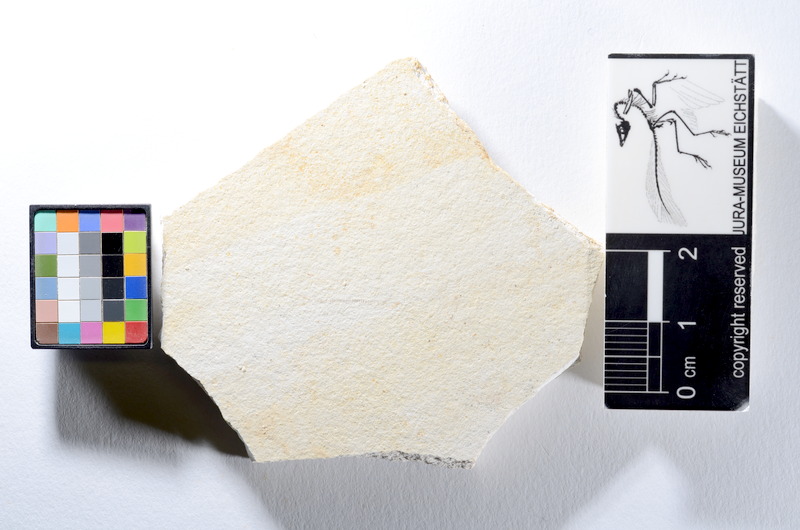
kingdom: Animalia
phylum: Chordata
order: Salmoniformes
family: Orthogonikleithridae
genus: Orthogonikleithrus
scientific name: Orthogonikleithrus hoelli
